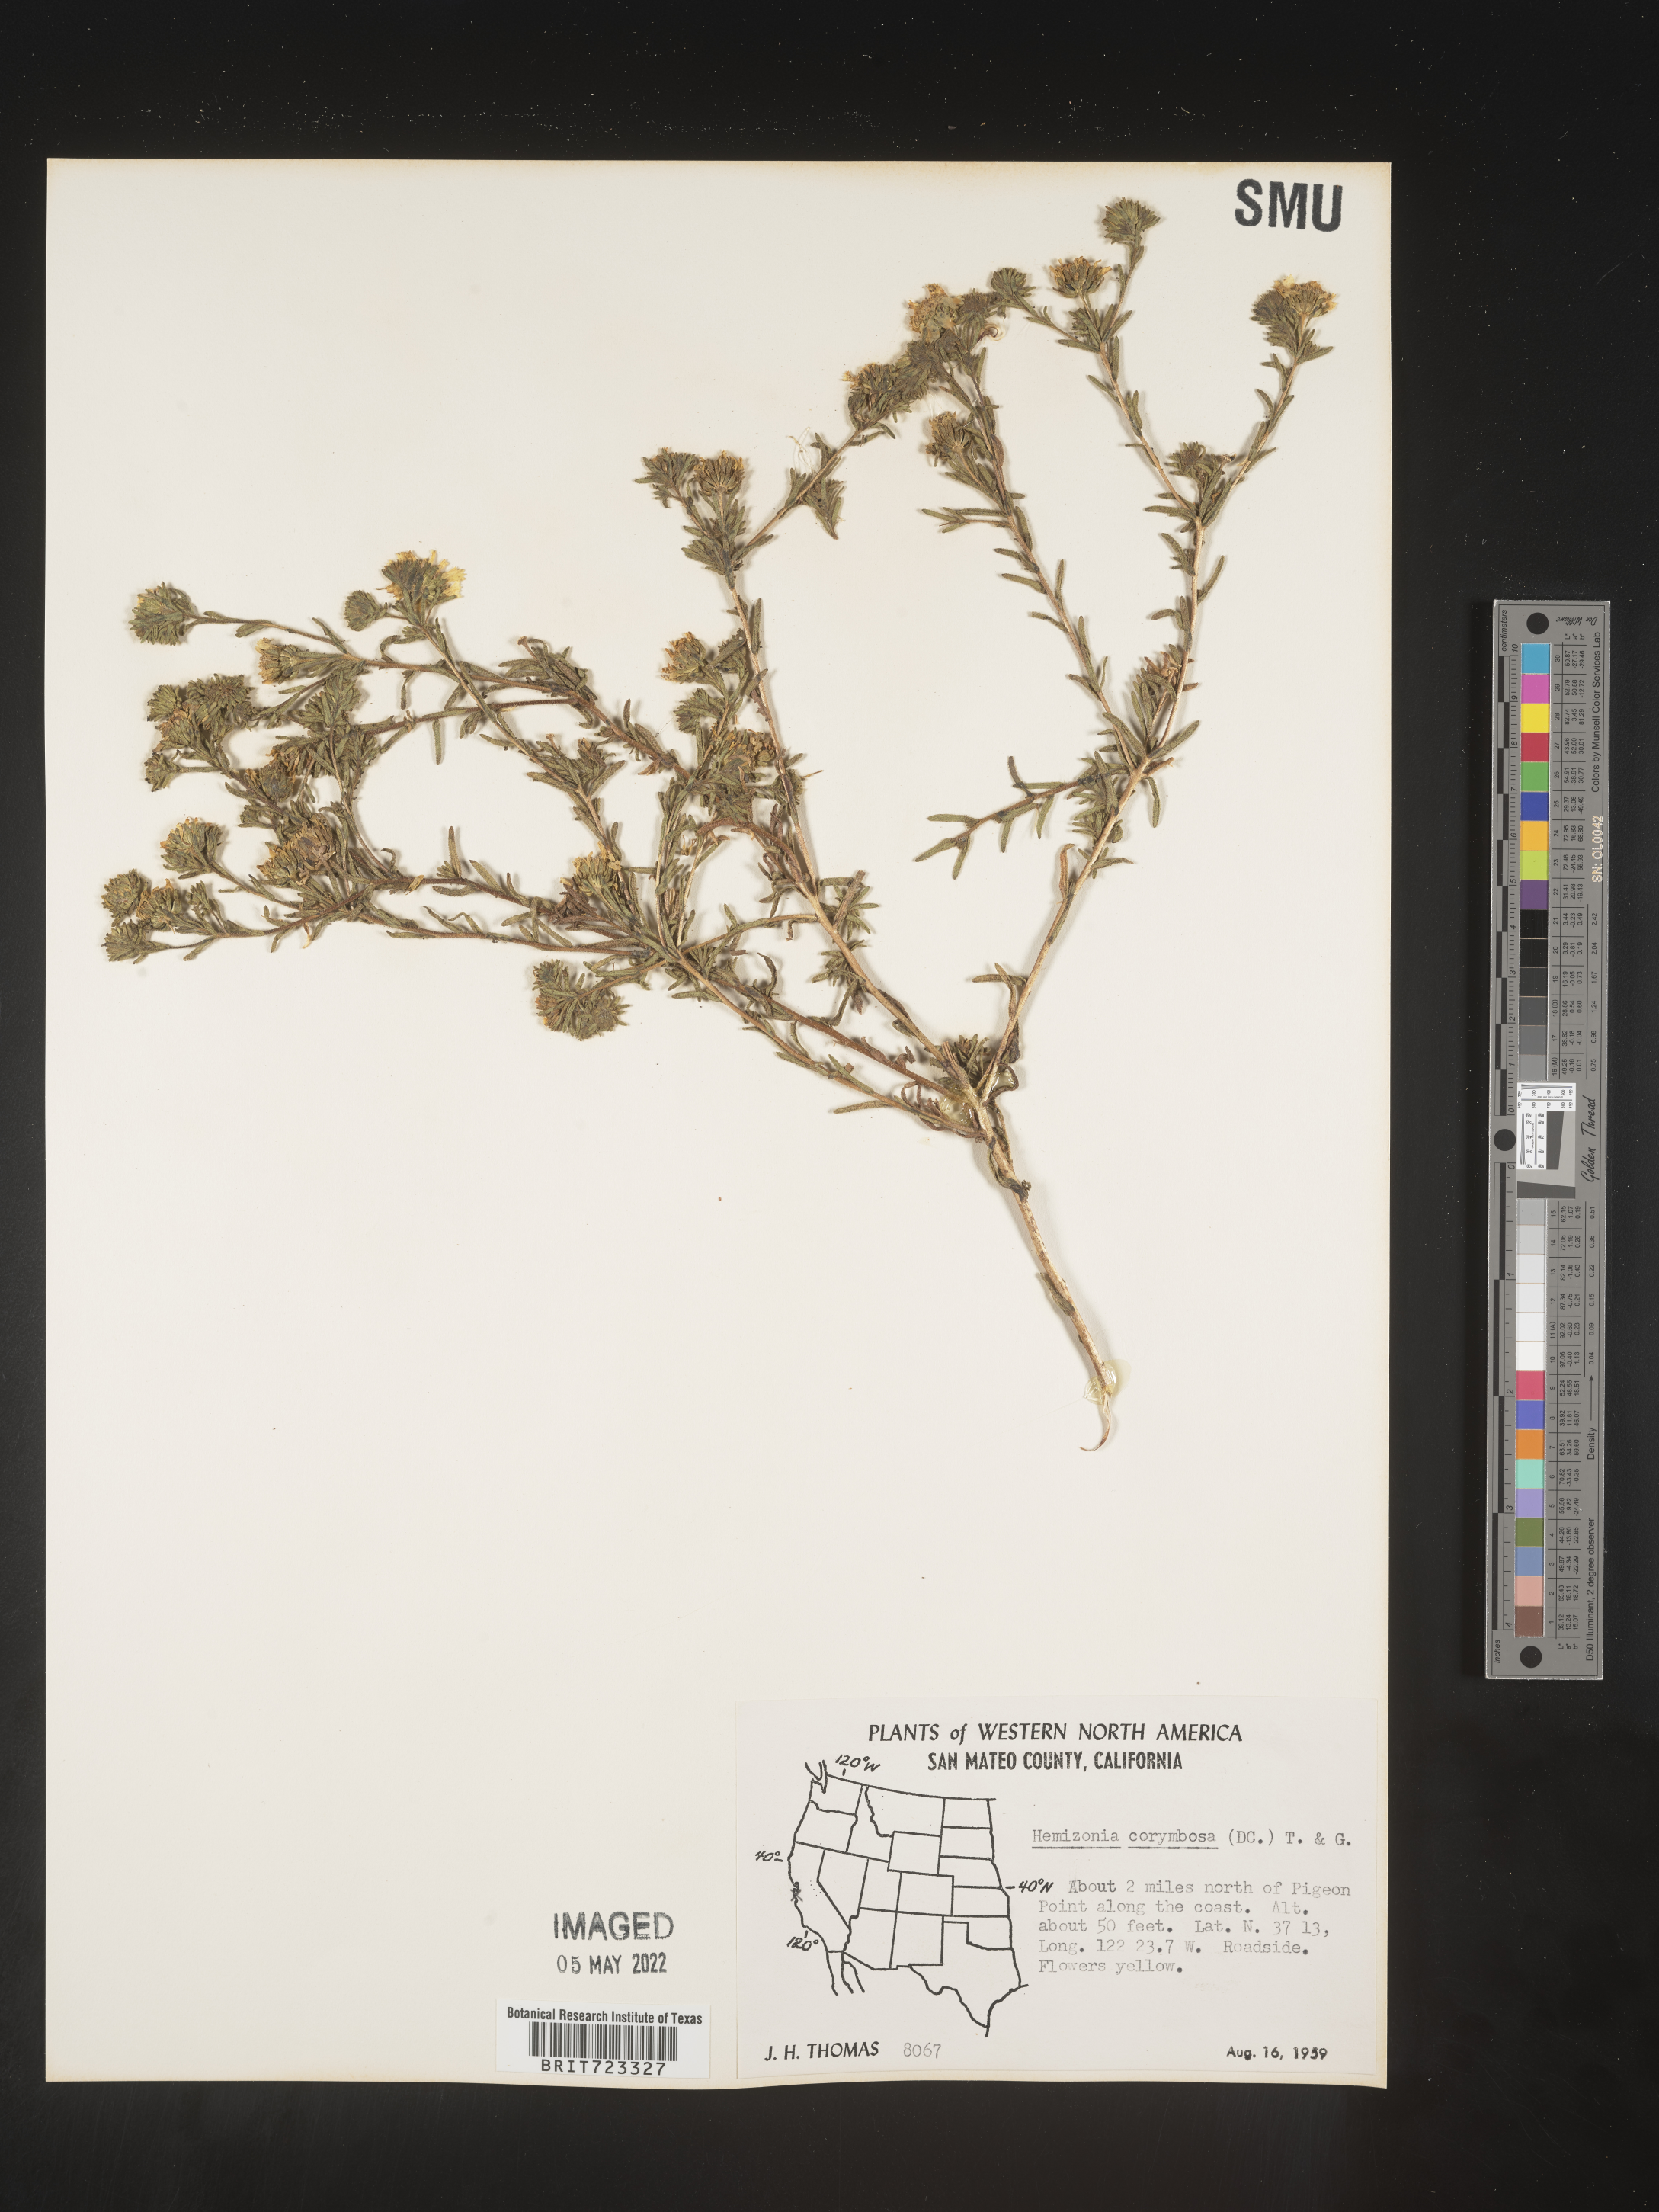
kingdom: Plantae
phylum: Tracheophyta
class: Magnoliopsida
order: Asterales
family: Asteraceae
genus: Hemizonia
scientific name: Hemizonia
